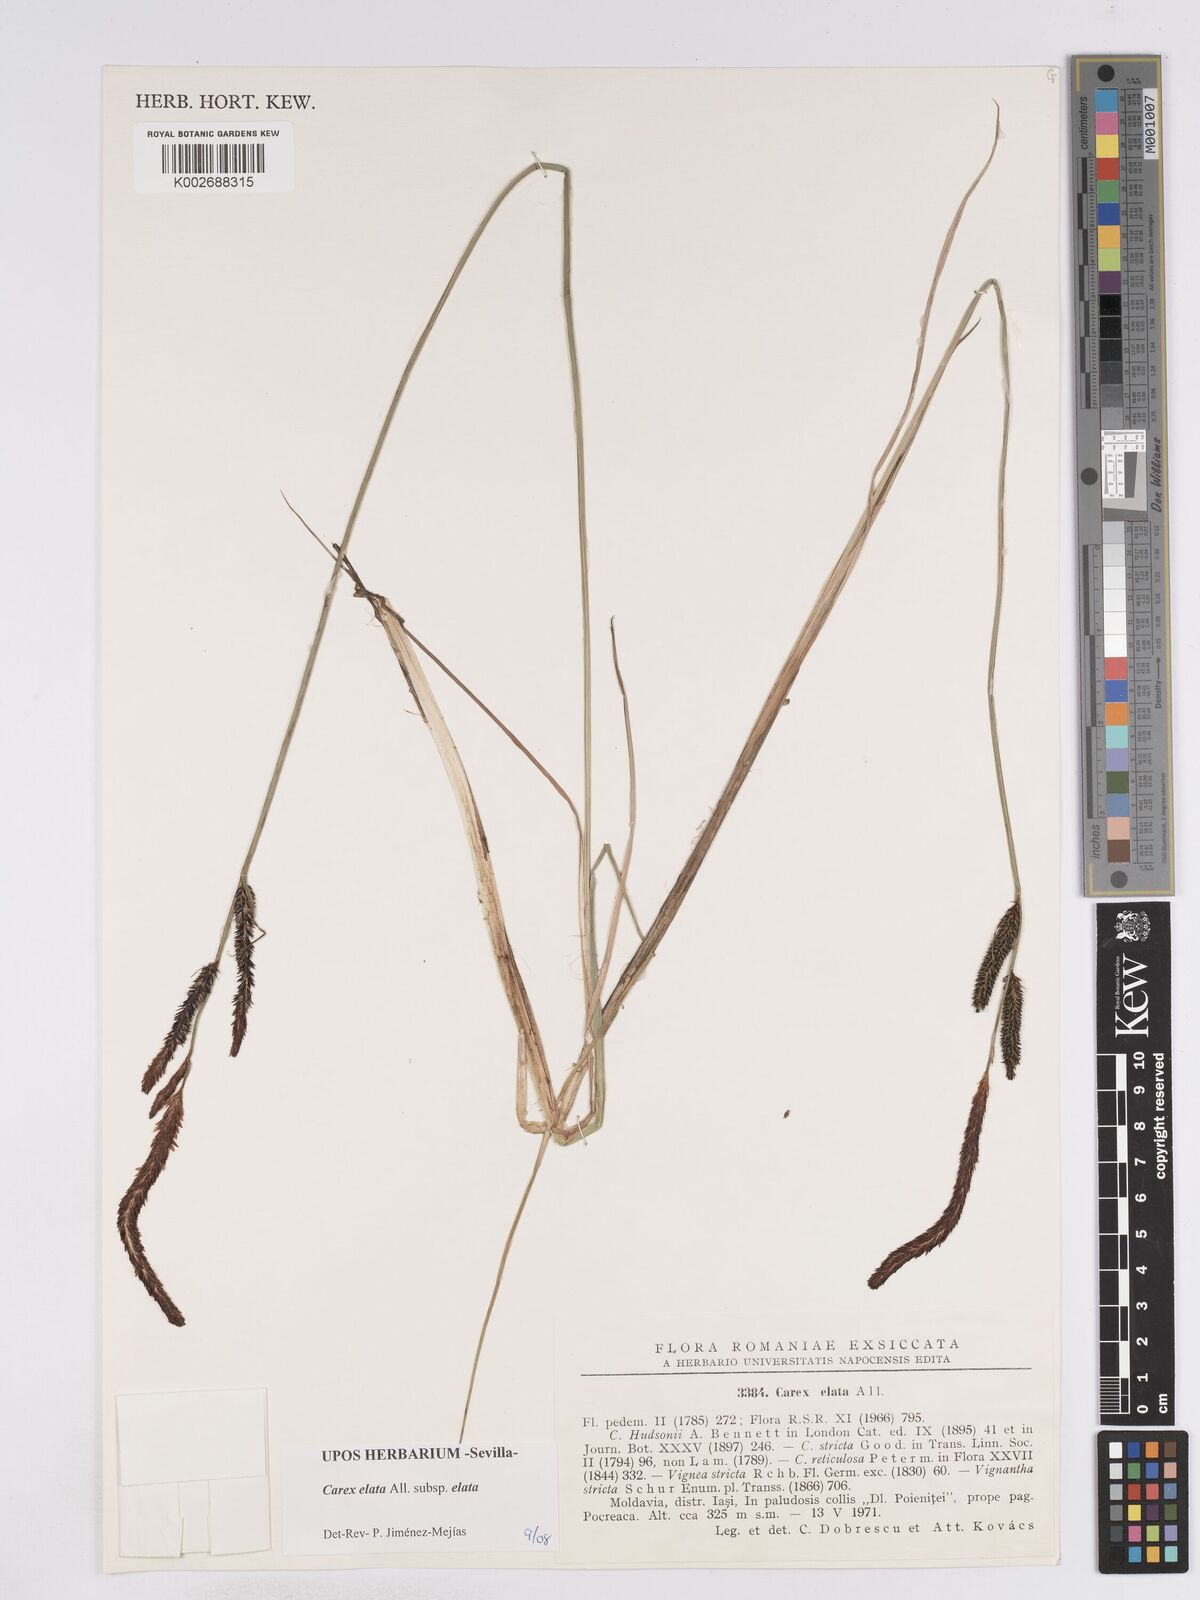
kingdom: Plantae
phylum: Tracheophyta
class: Liliopsida
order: Poales
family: Cyperaceae
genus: Carex
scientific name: Carex elata
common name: Tufted sedge
